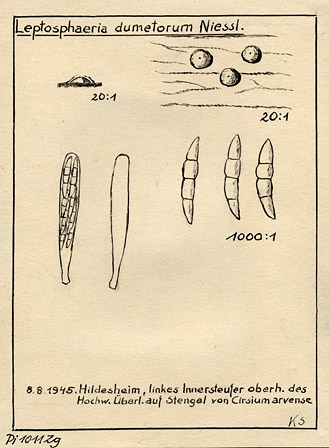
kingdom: Fungi
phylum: Ascomycota
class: Dothideomycetes
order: Pleosporales
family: Leptosphaeriaceae
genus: Leptosphaeria
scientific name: Leptosphaeria dumetorum
